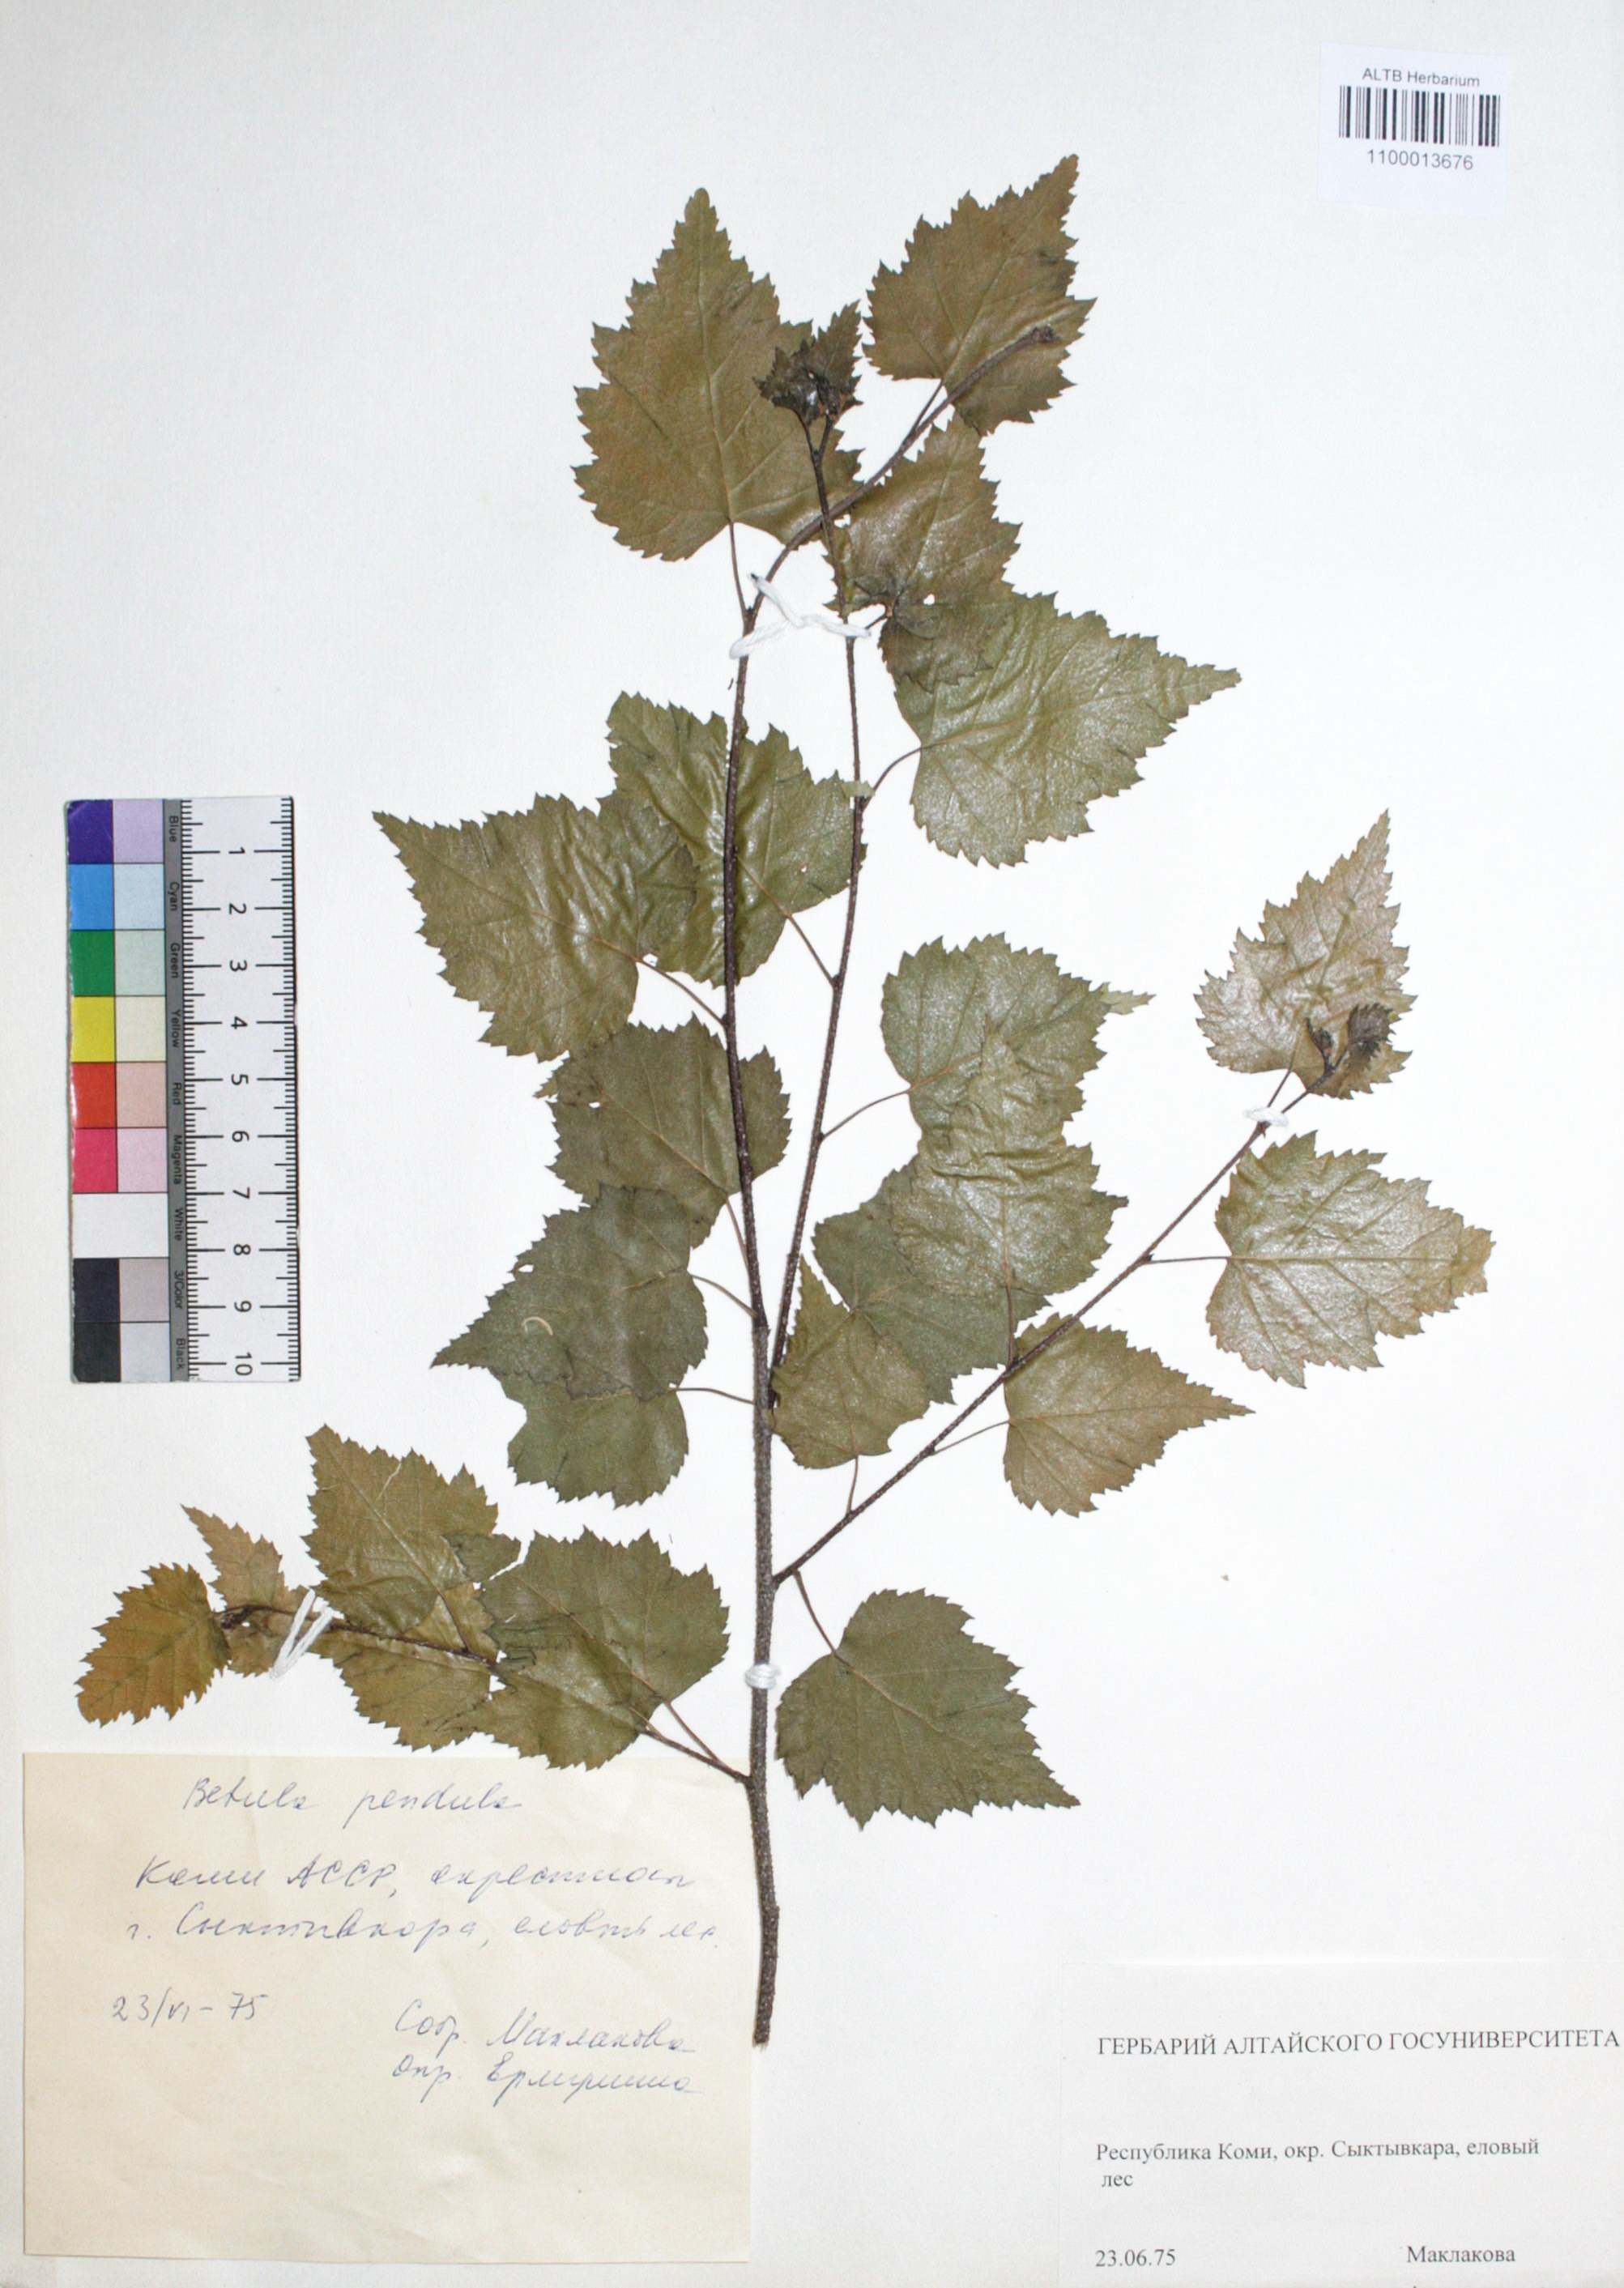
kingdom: Plantae
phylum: Tracheophyta
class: Magnoliopsida
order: Fagales
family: Betulaceae
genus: Betula
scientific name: Betula pendula
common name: Silver birch
